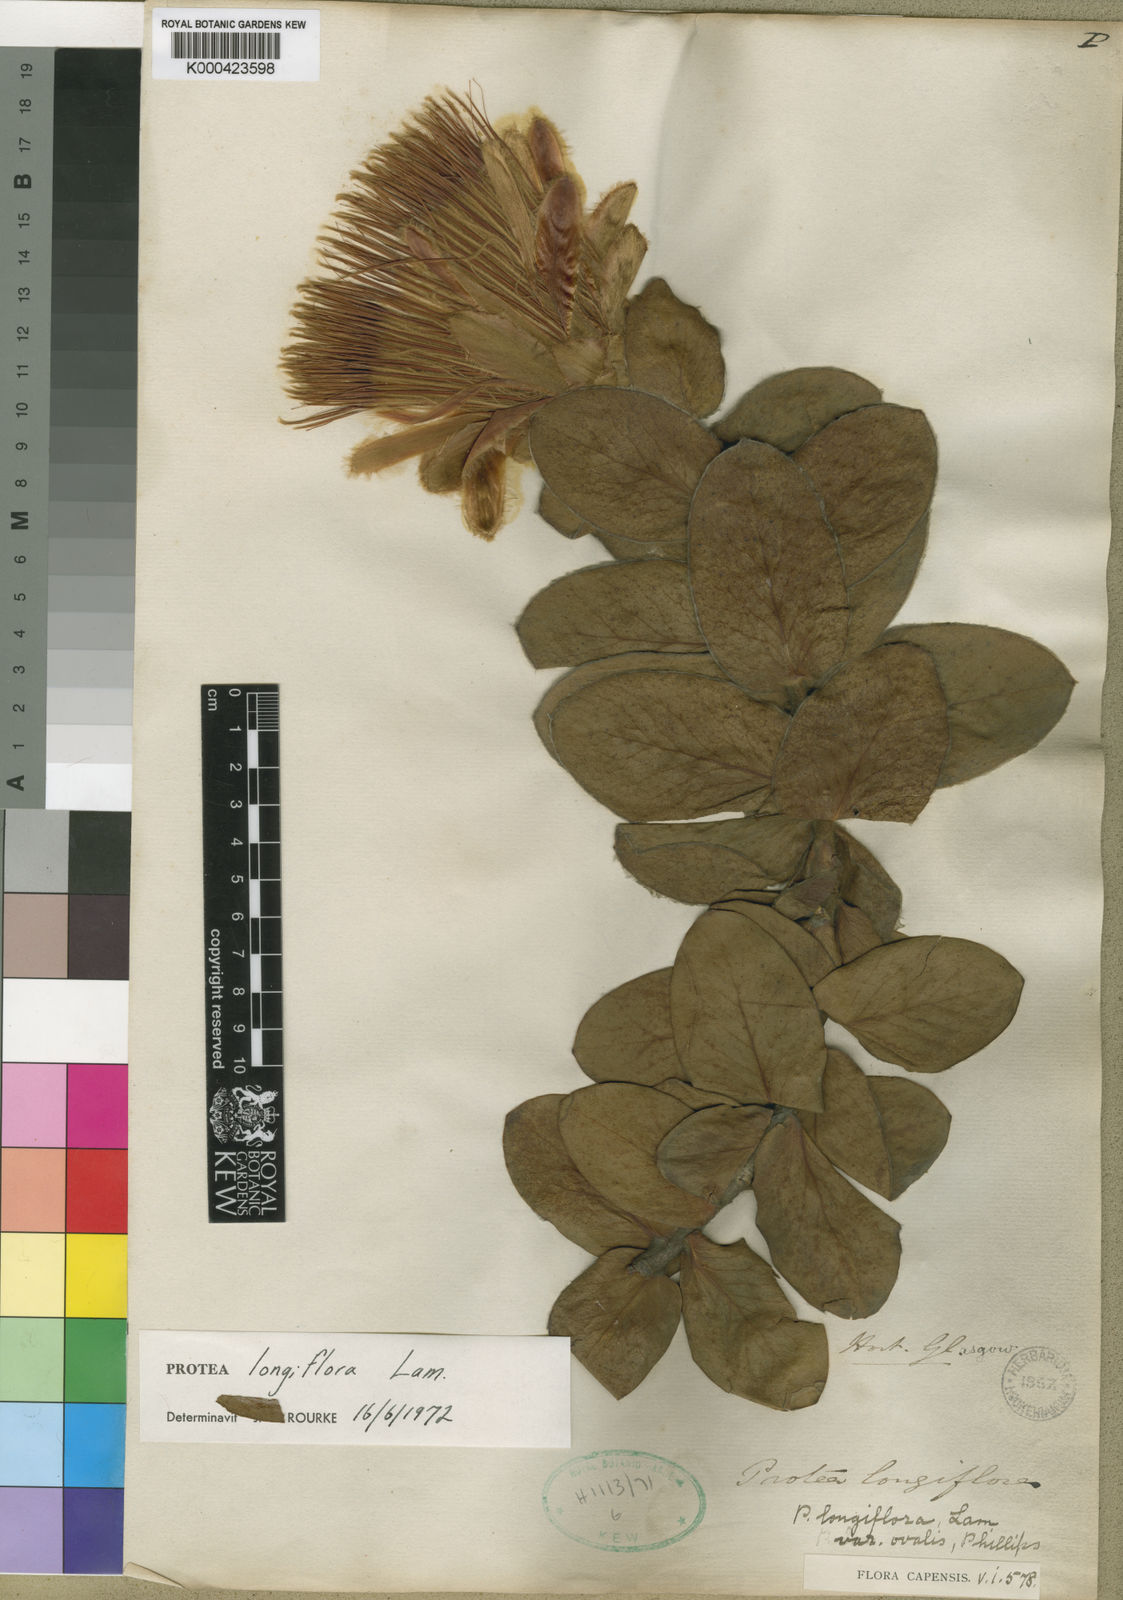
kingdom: Plantae
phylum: Tracheophyta
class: Magnoliopsida
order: Proteales
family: Proteaceae
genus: Protea
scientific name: Protea aurea
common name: Shuttlecock sugarbush
